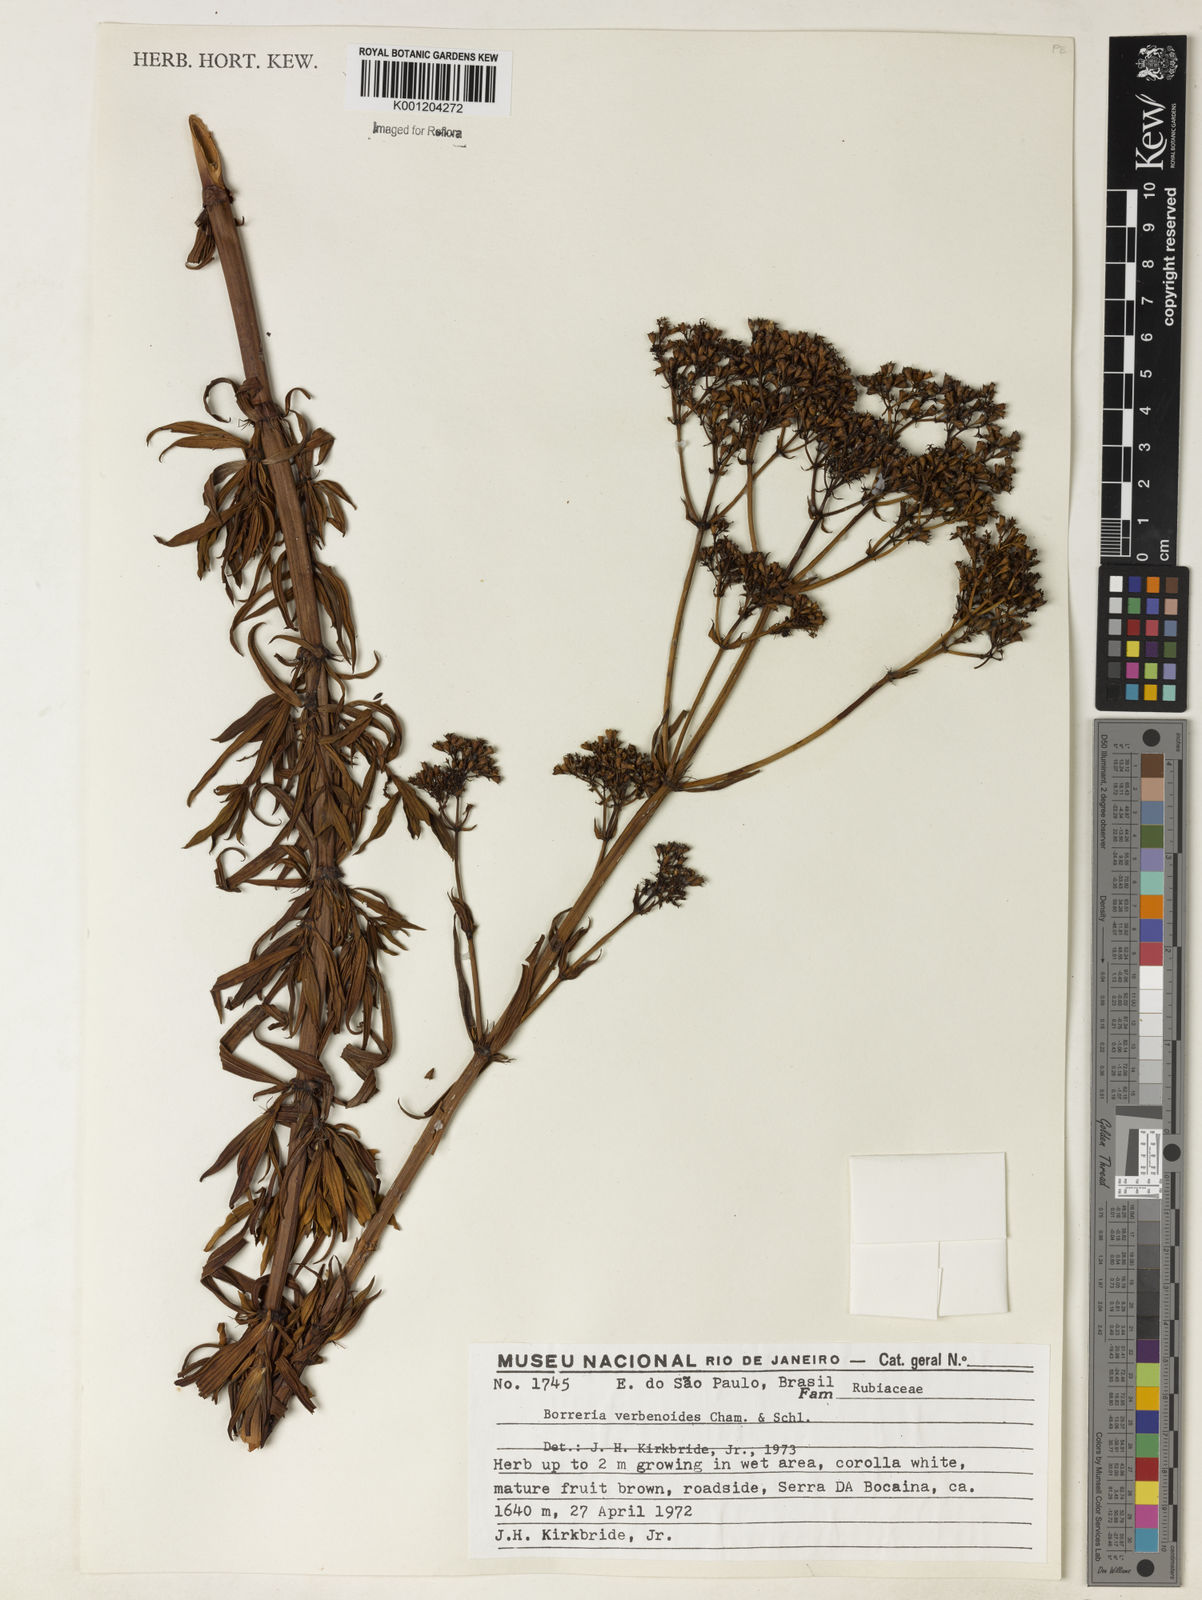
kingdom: Plantae
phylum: Tracheophyta
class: Magnoliopsida
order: Gentianales
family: Rubiaceae
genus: Galianthe
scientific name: Galianthe verbenoides
